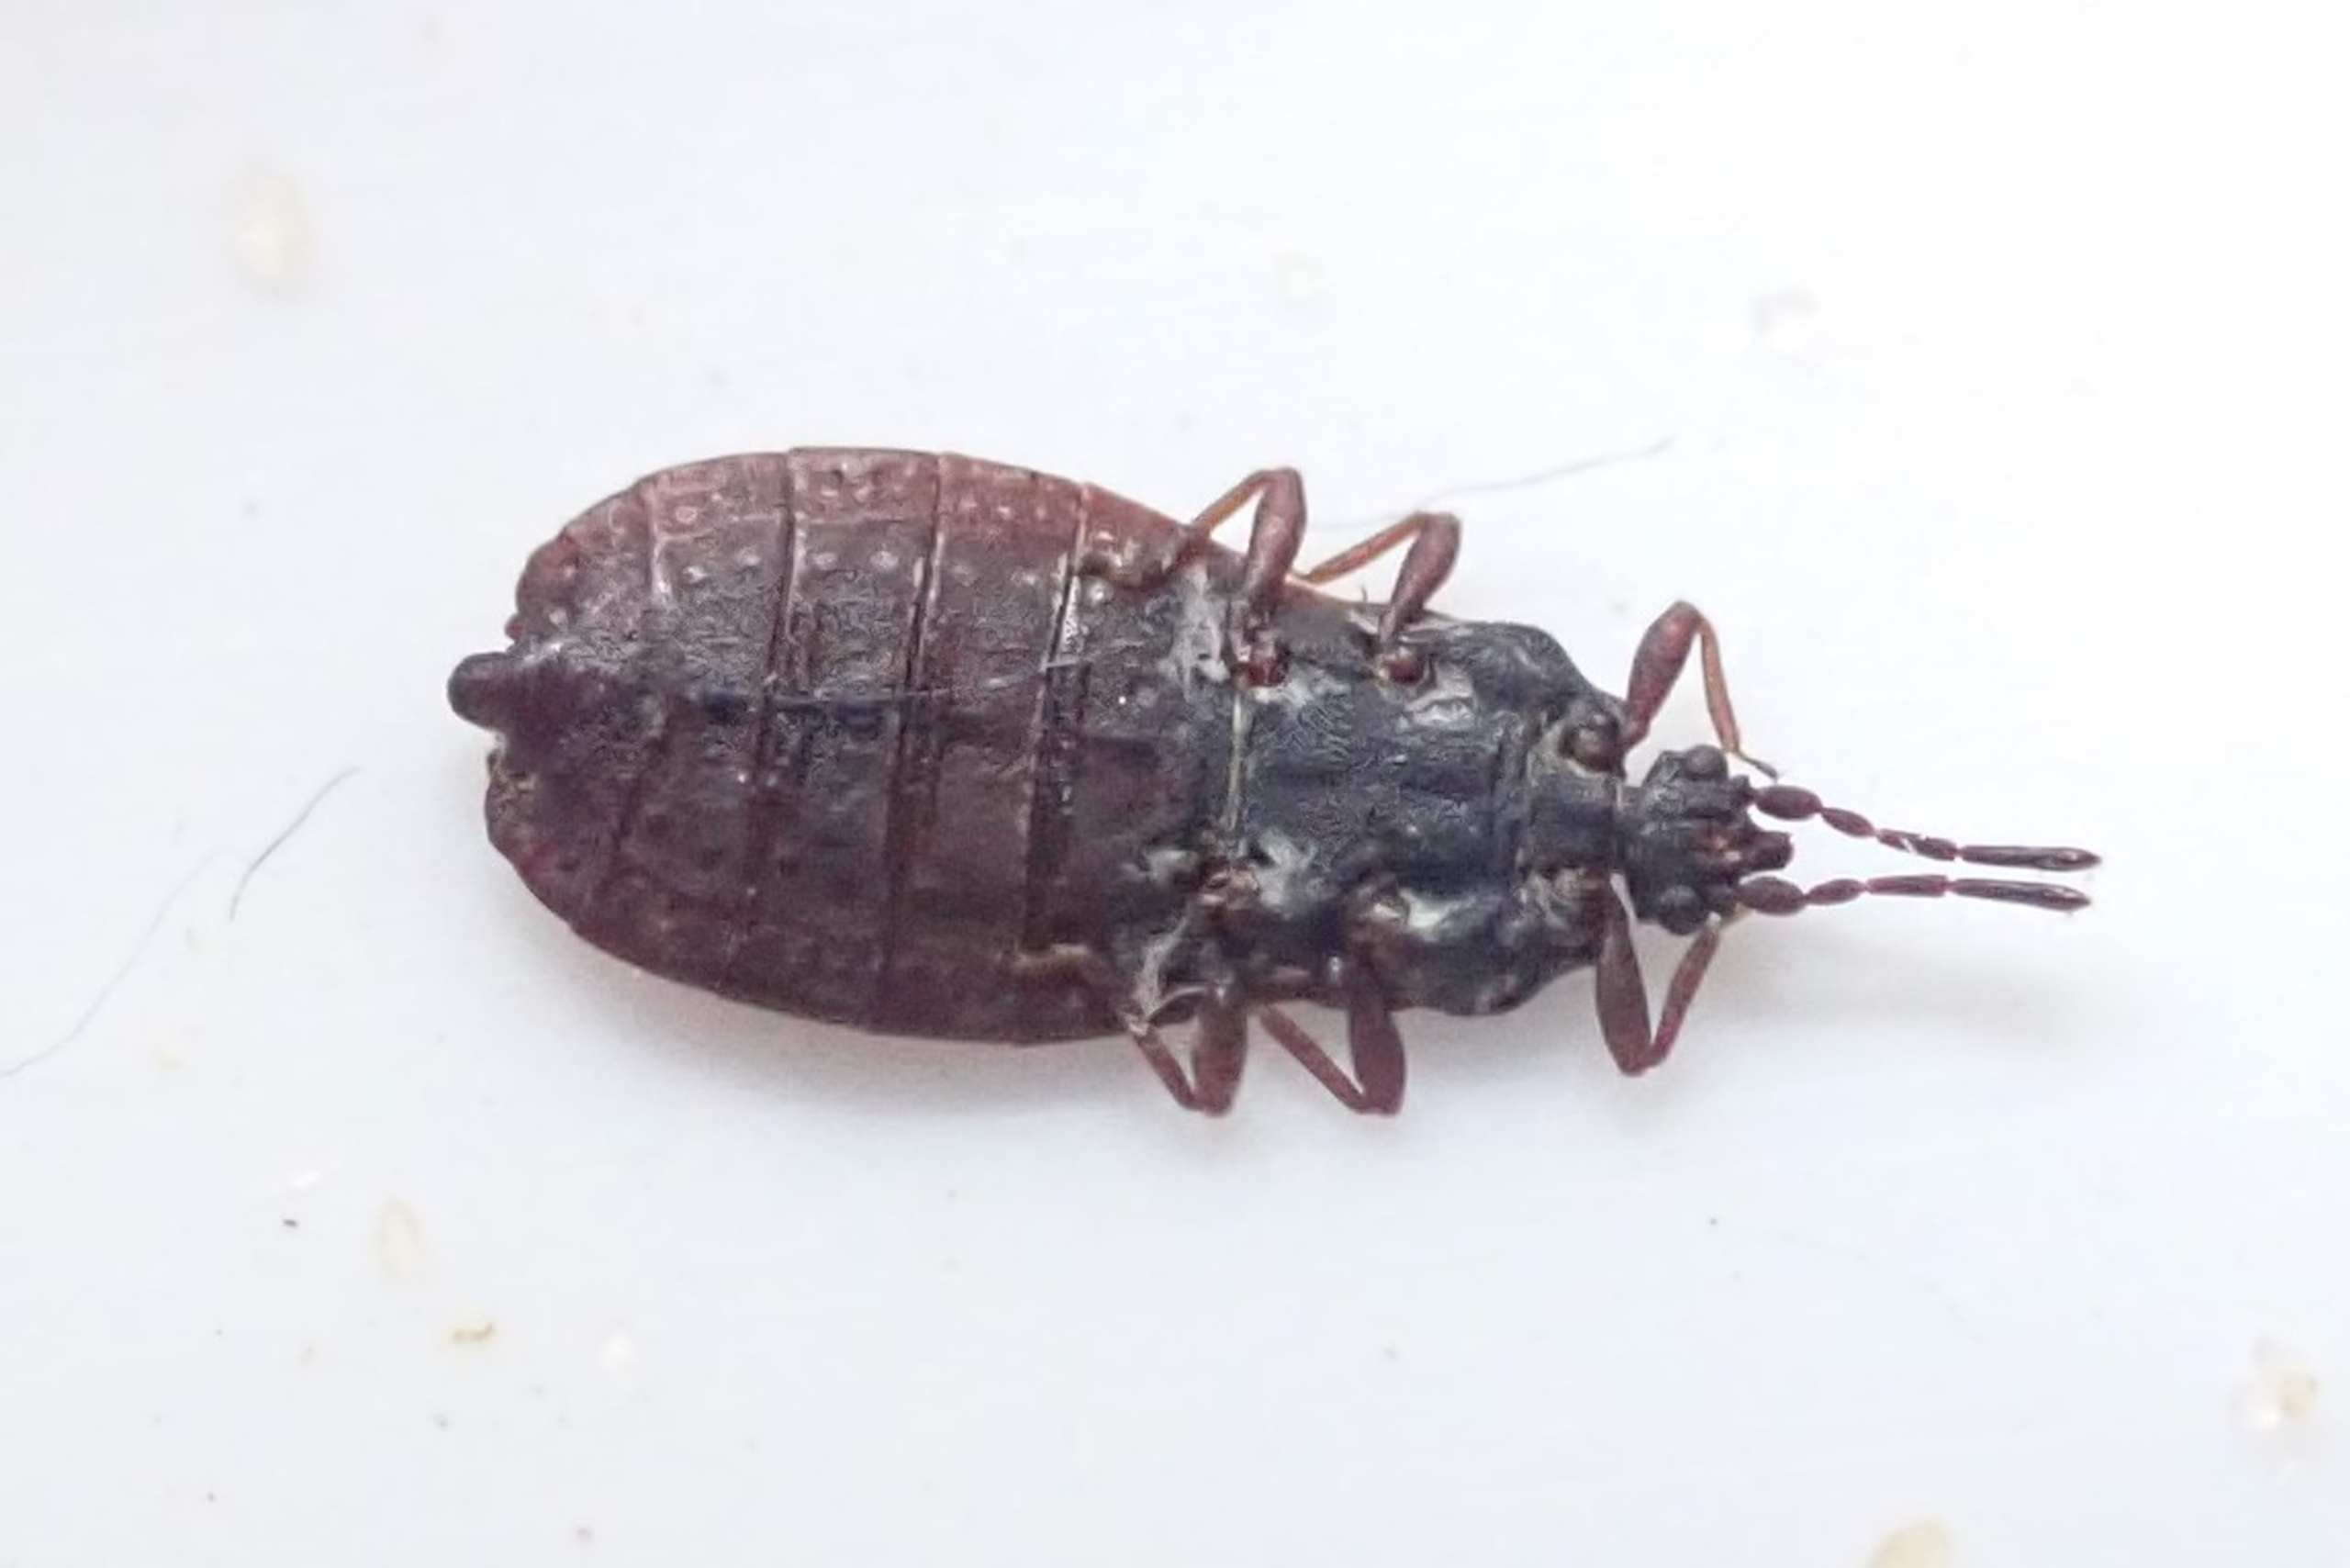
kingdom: Animalia
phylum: Arthropoda
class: Insecta
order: Hemiptera
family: Aradidae
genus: Aneurus
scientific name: Aneurus avenius
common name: Flad risgærdetæge
